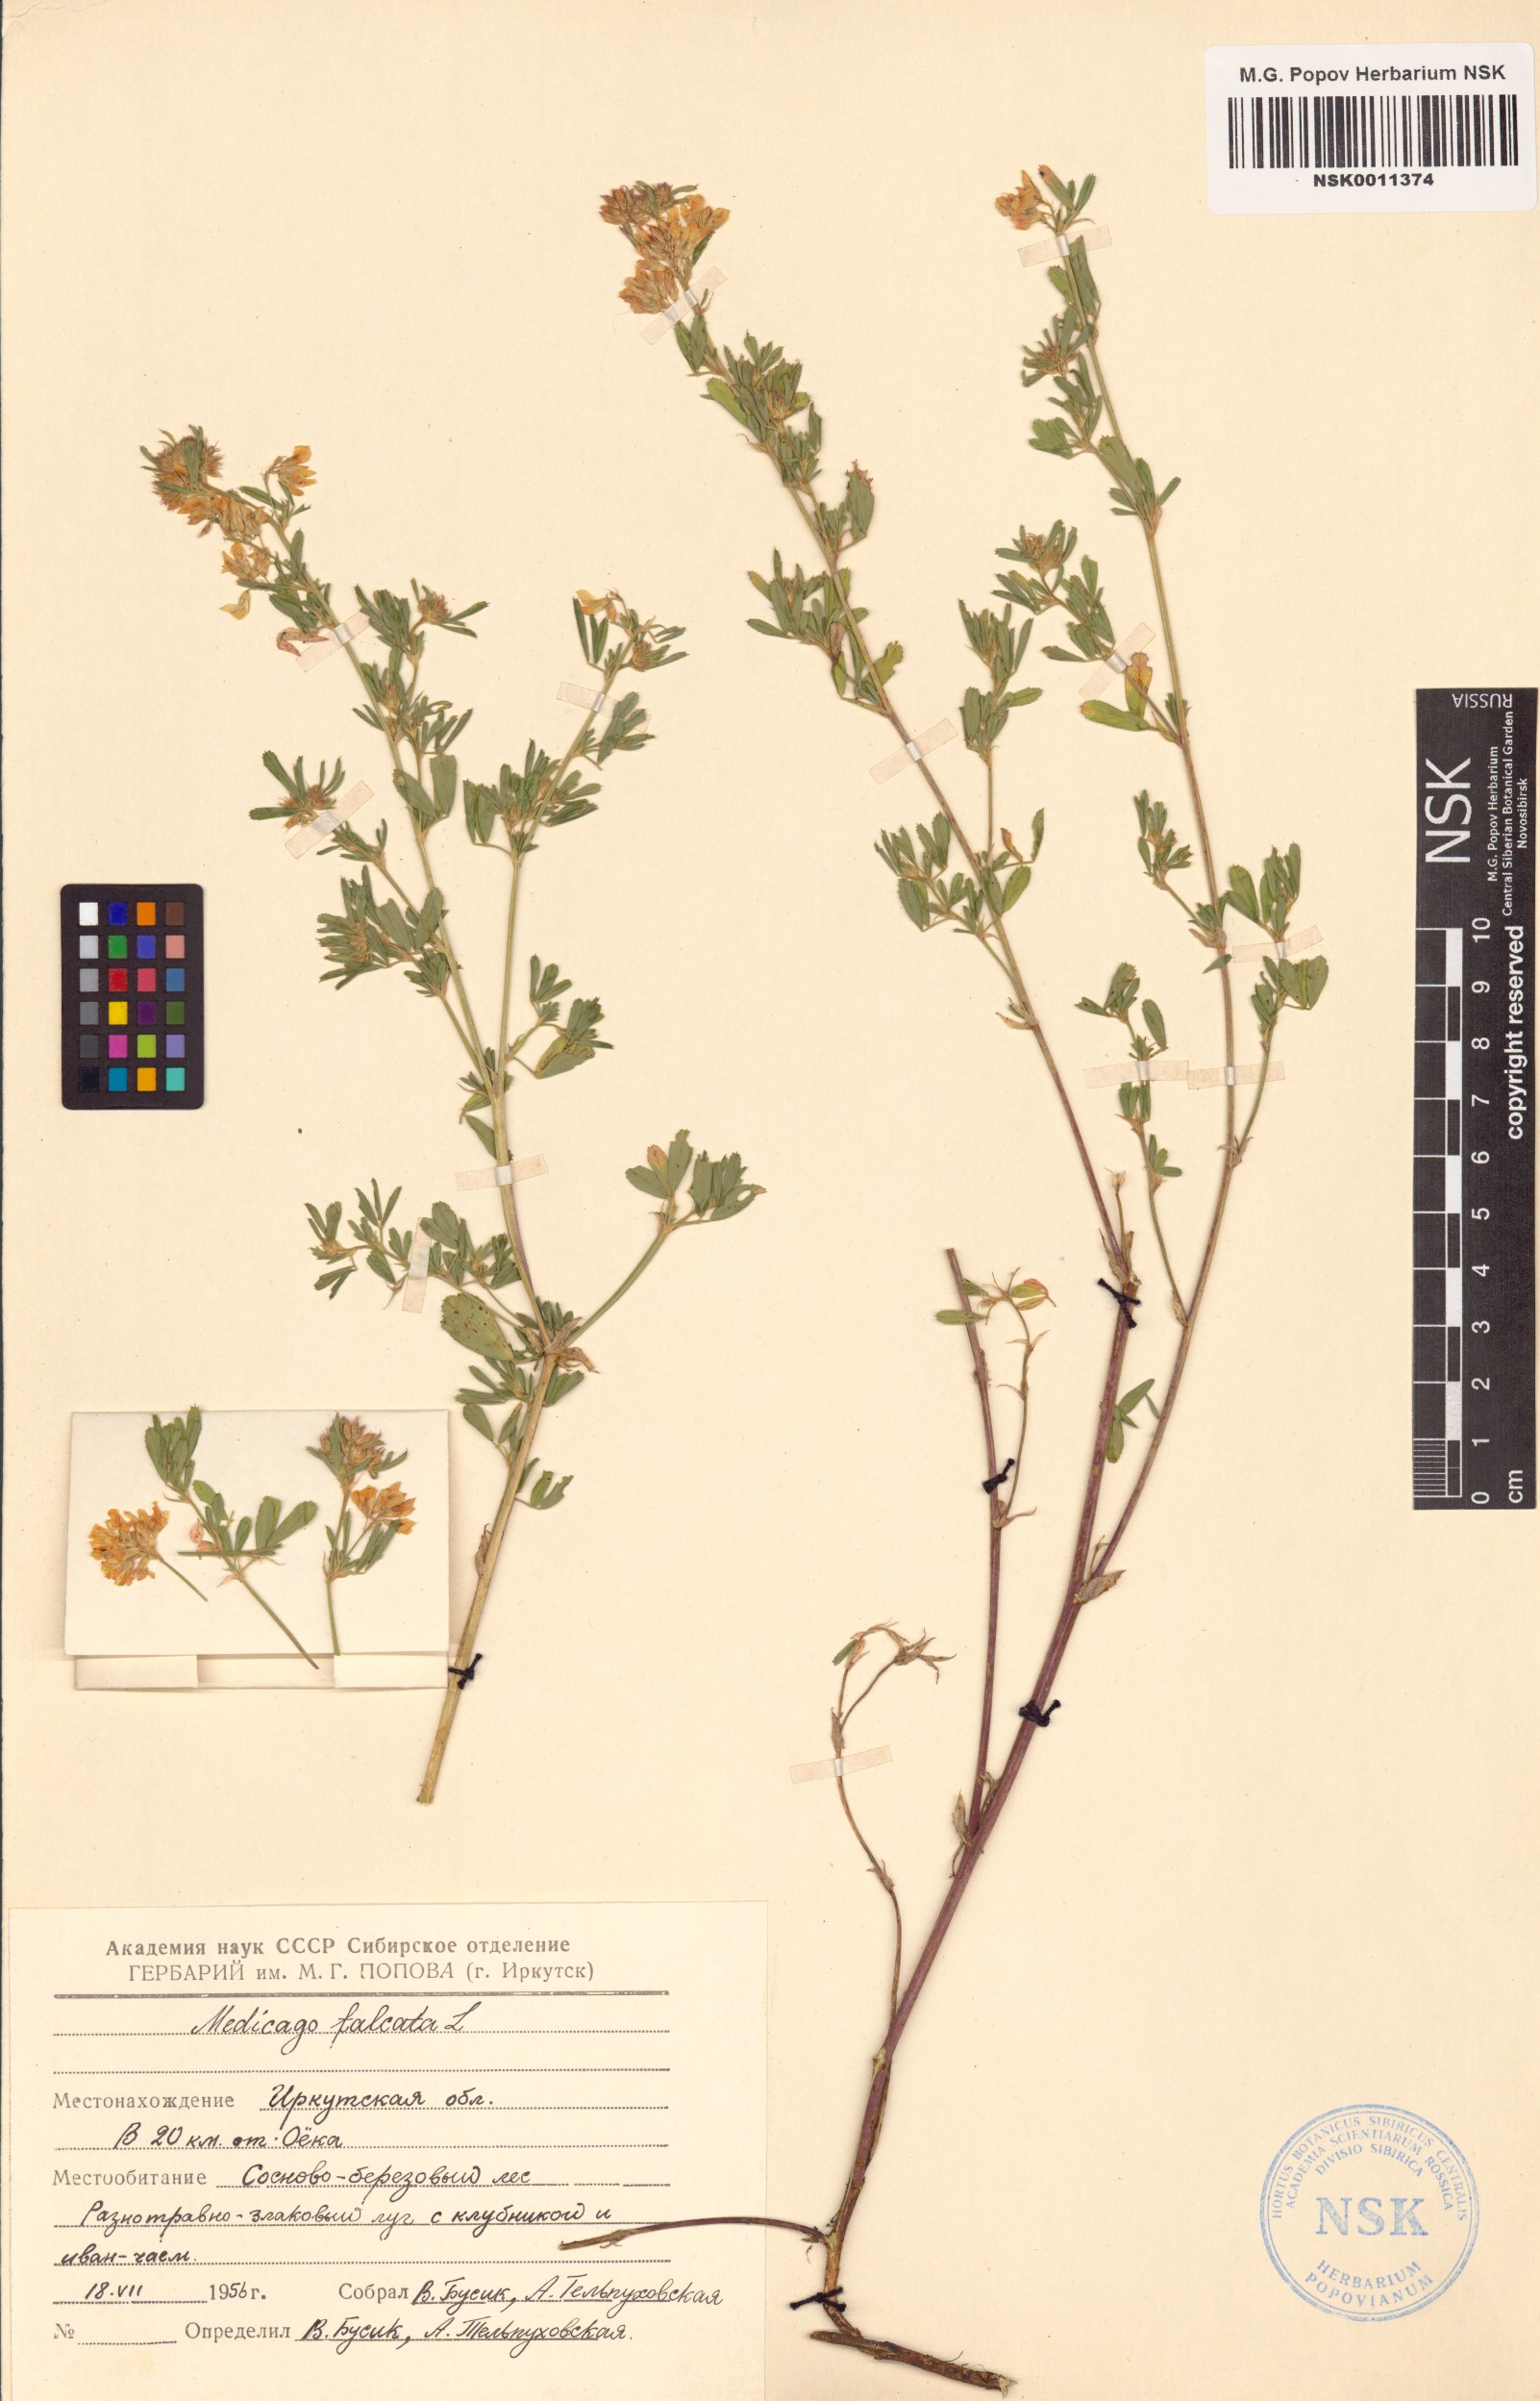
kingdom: Plantae
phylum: Tracheophyta
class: Magnoliopsida
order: Fabales
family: Fabaceae
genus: Medicago
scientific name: Medicago falcata
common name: Sickle medick
